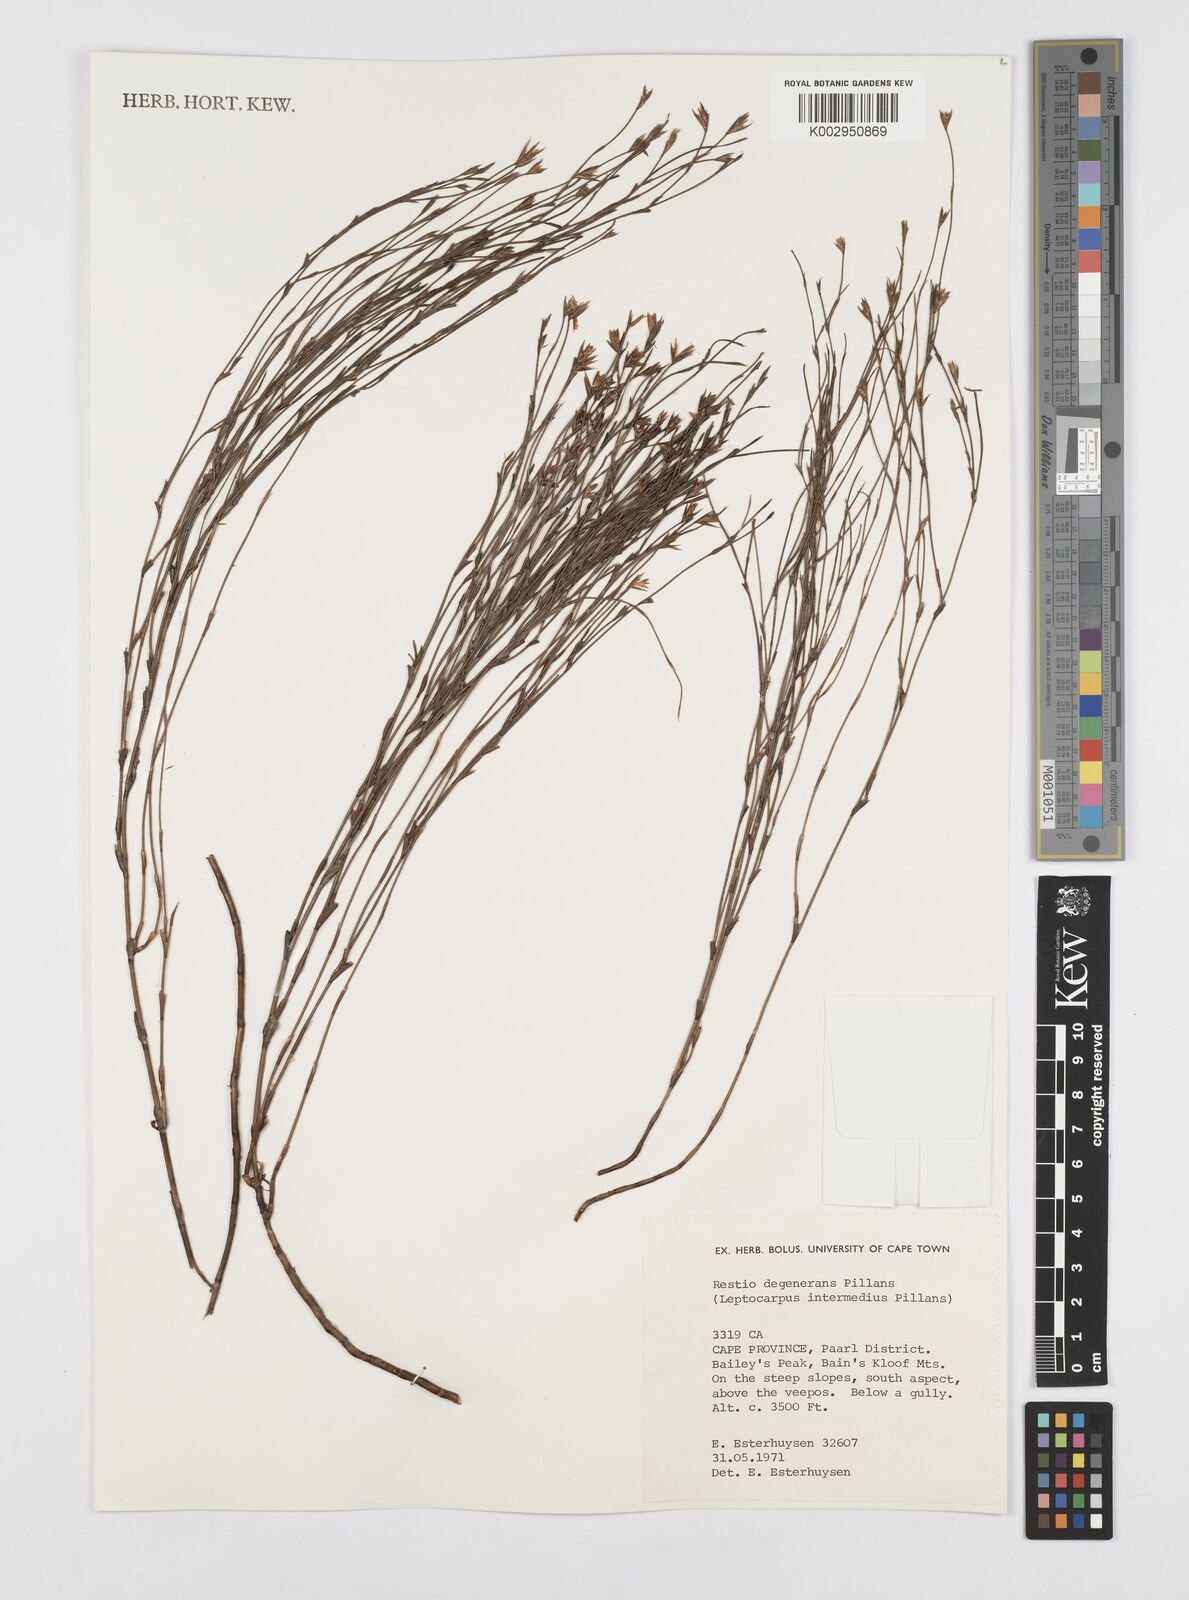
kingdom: Plantae
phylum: Tracheophyta
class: Liliopsida
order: Poales
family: Restionaceae
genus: Restio
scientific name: Restio degenerans
